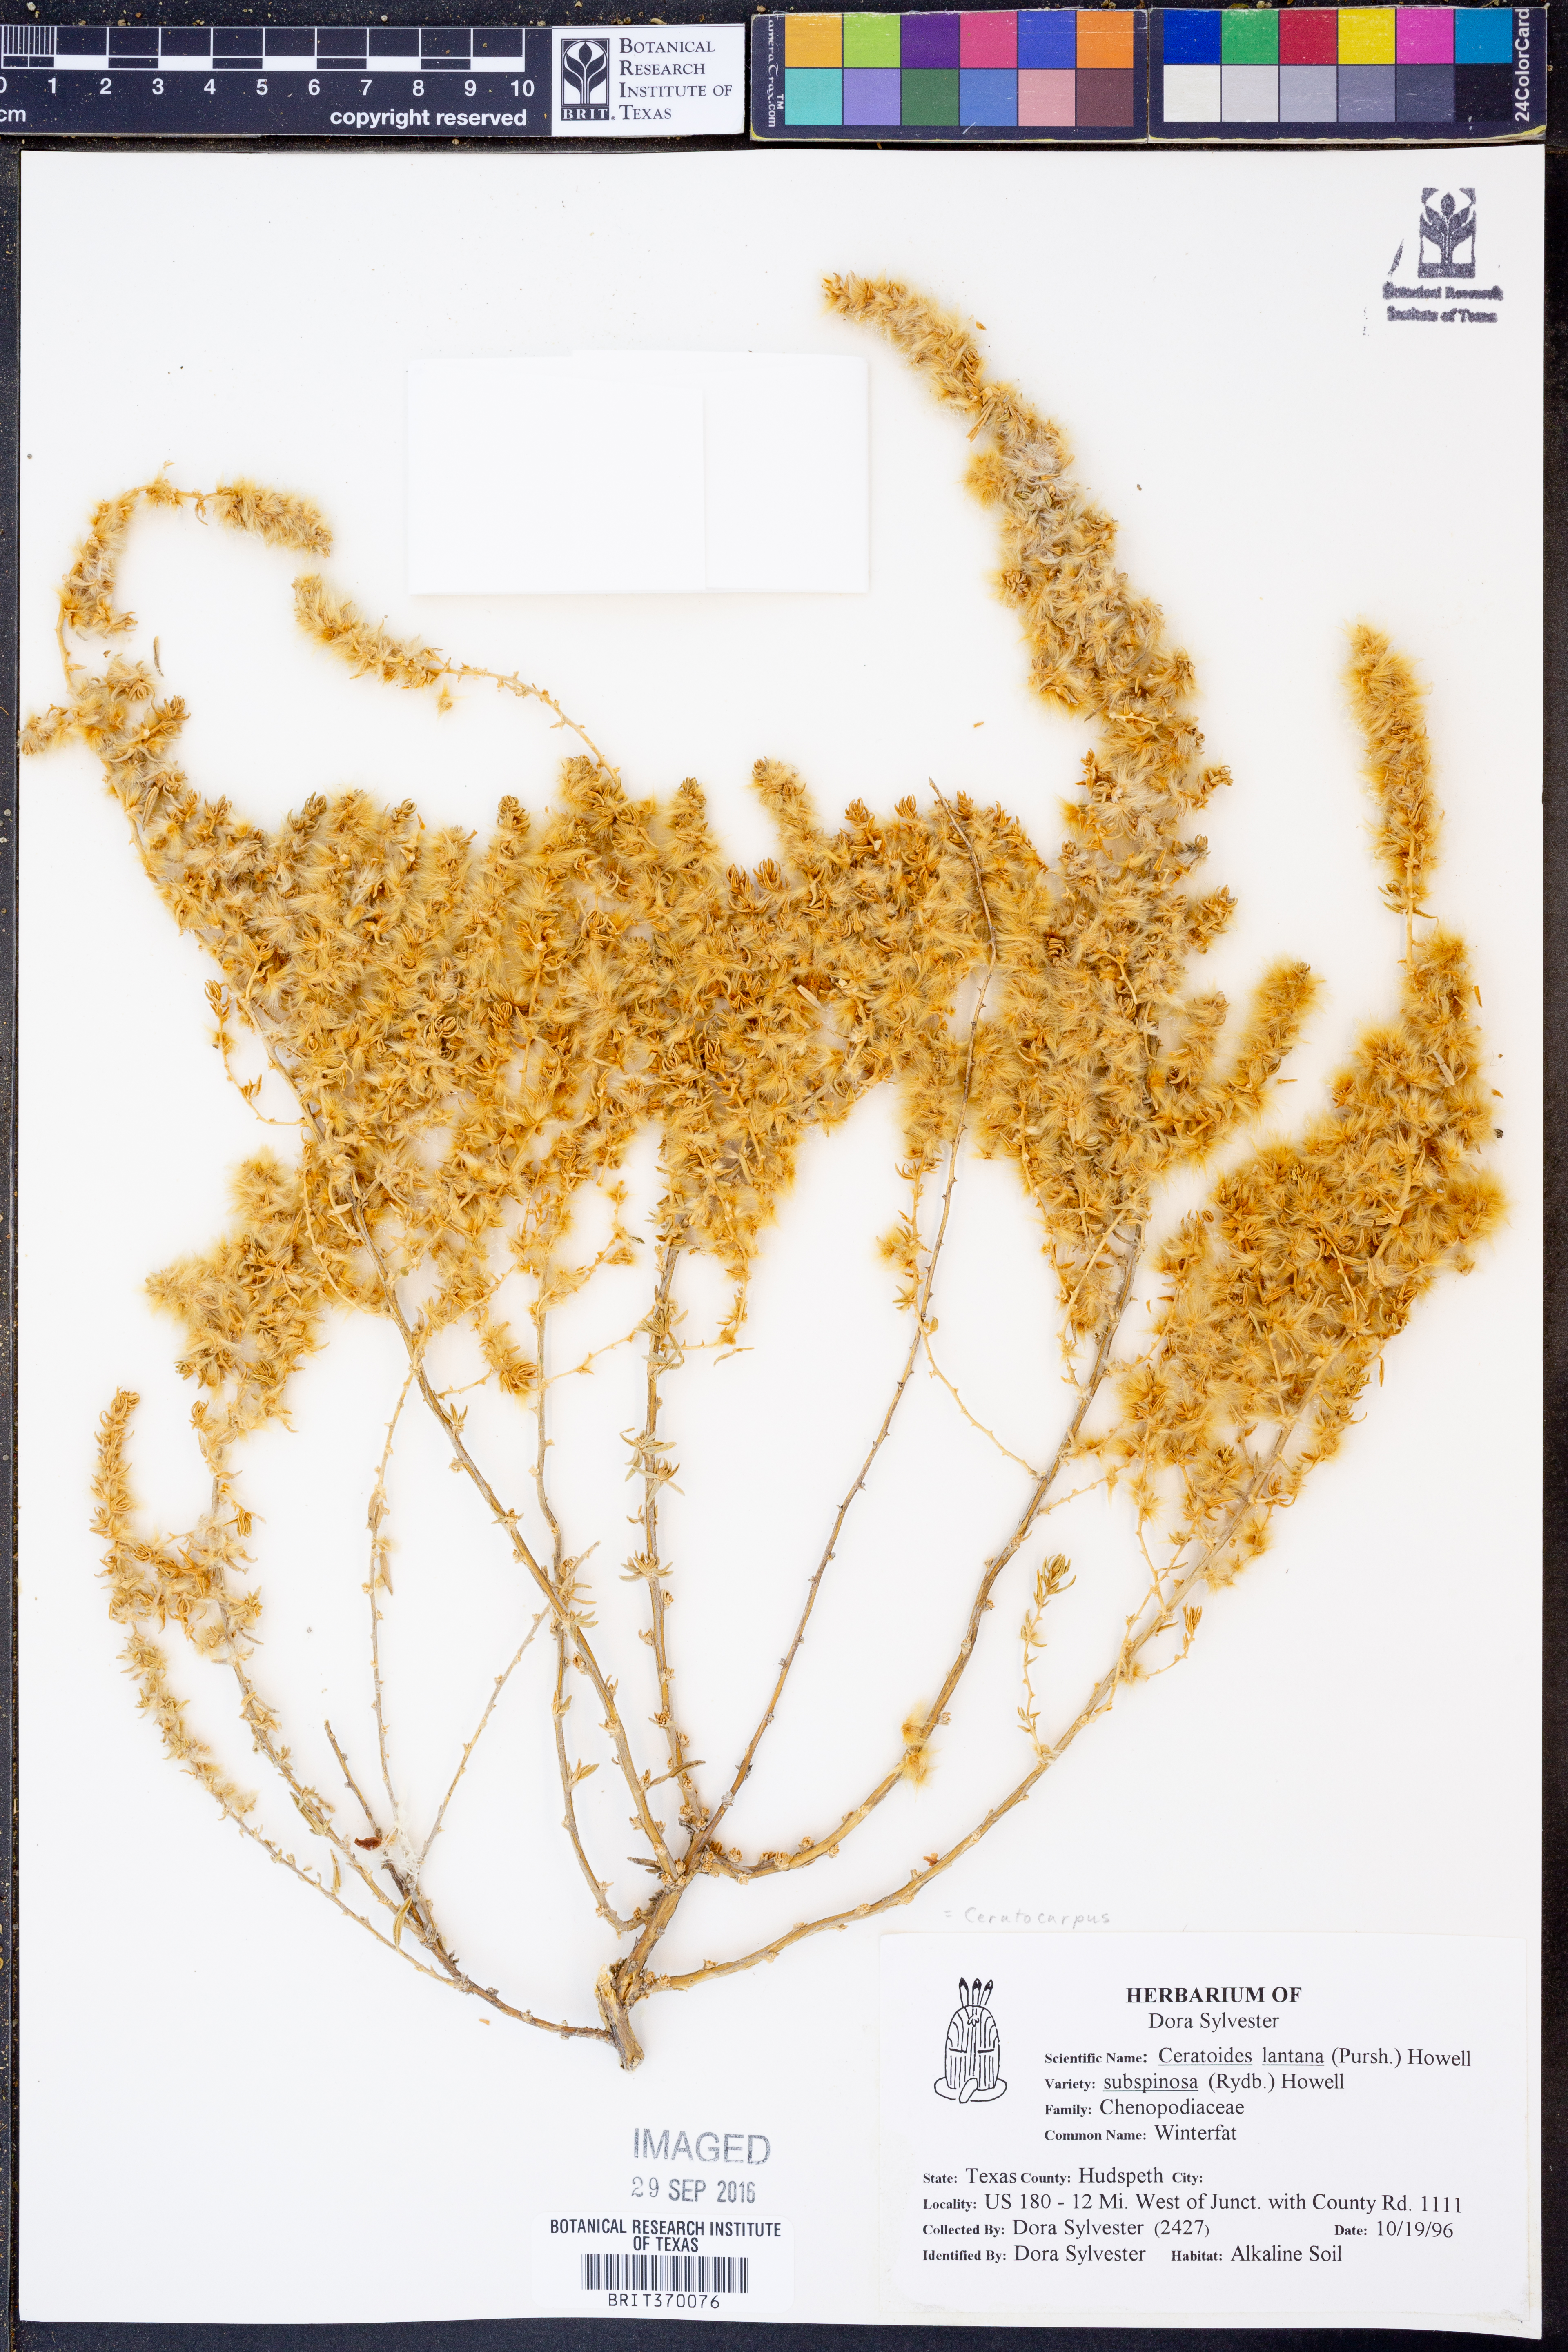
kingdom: Plantae
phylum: Tracheophyta
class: Magnoliopsida
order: Caryophyllales
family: Amaranthaceae
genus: Krascheninnikovia
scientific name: Krascheninnikovia lanata
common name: Winterfat
